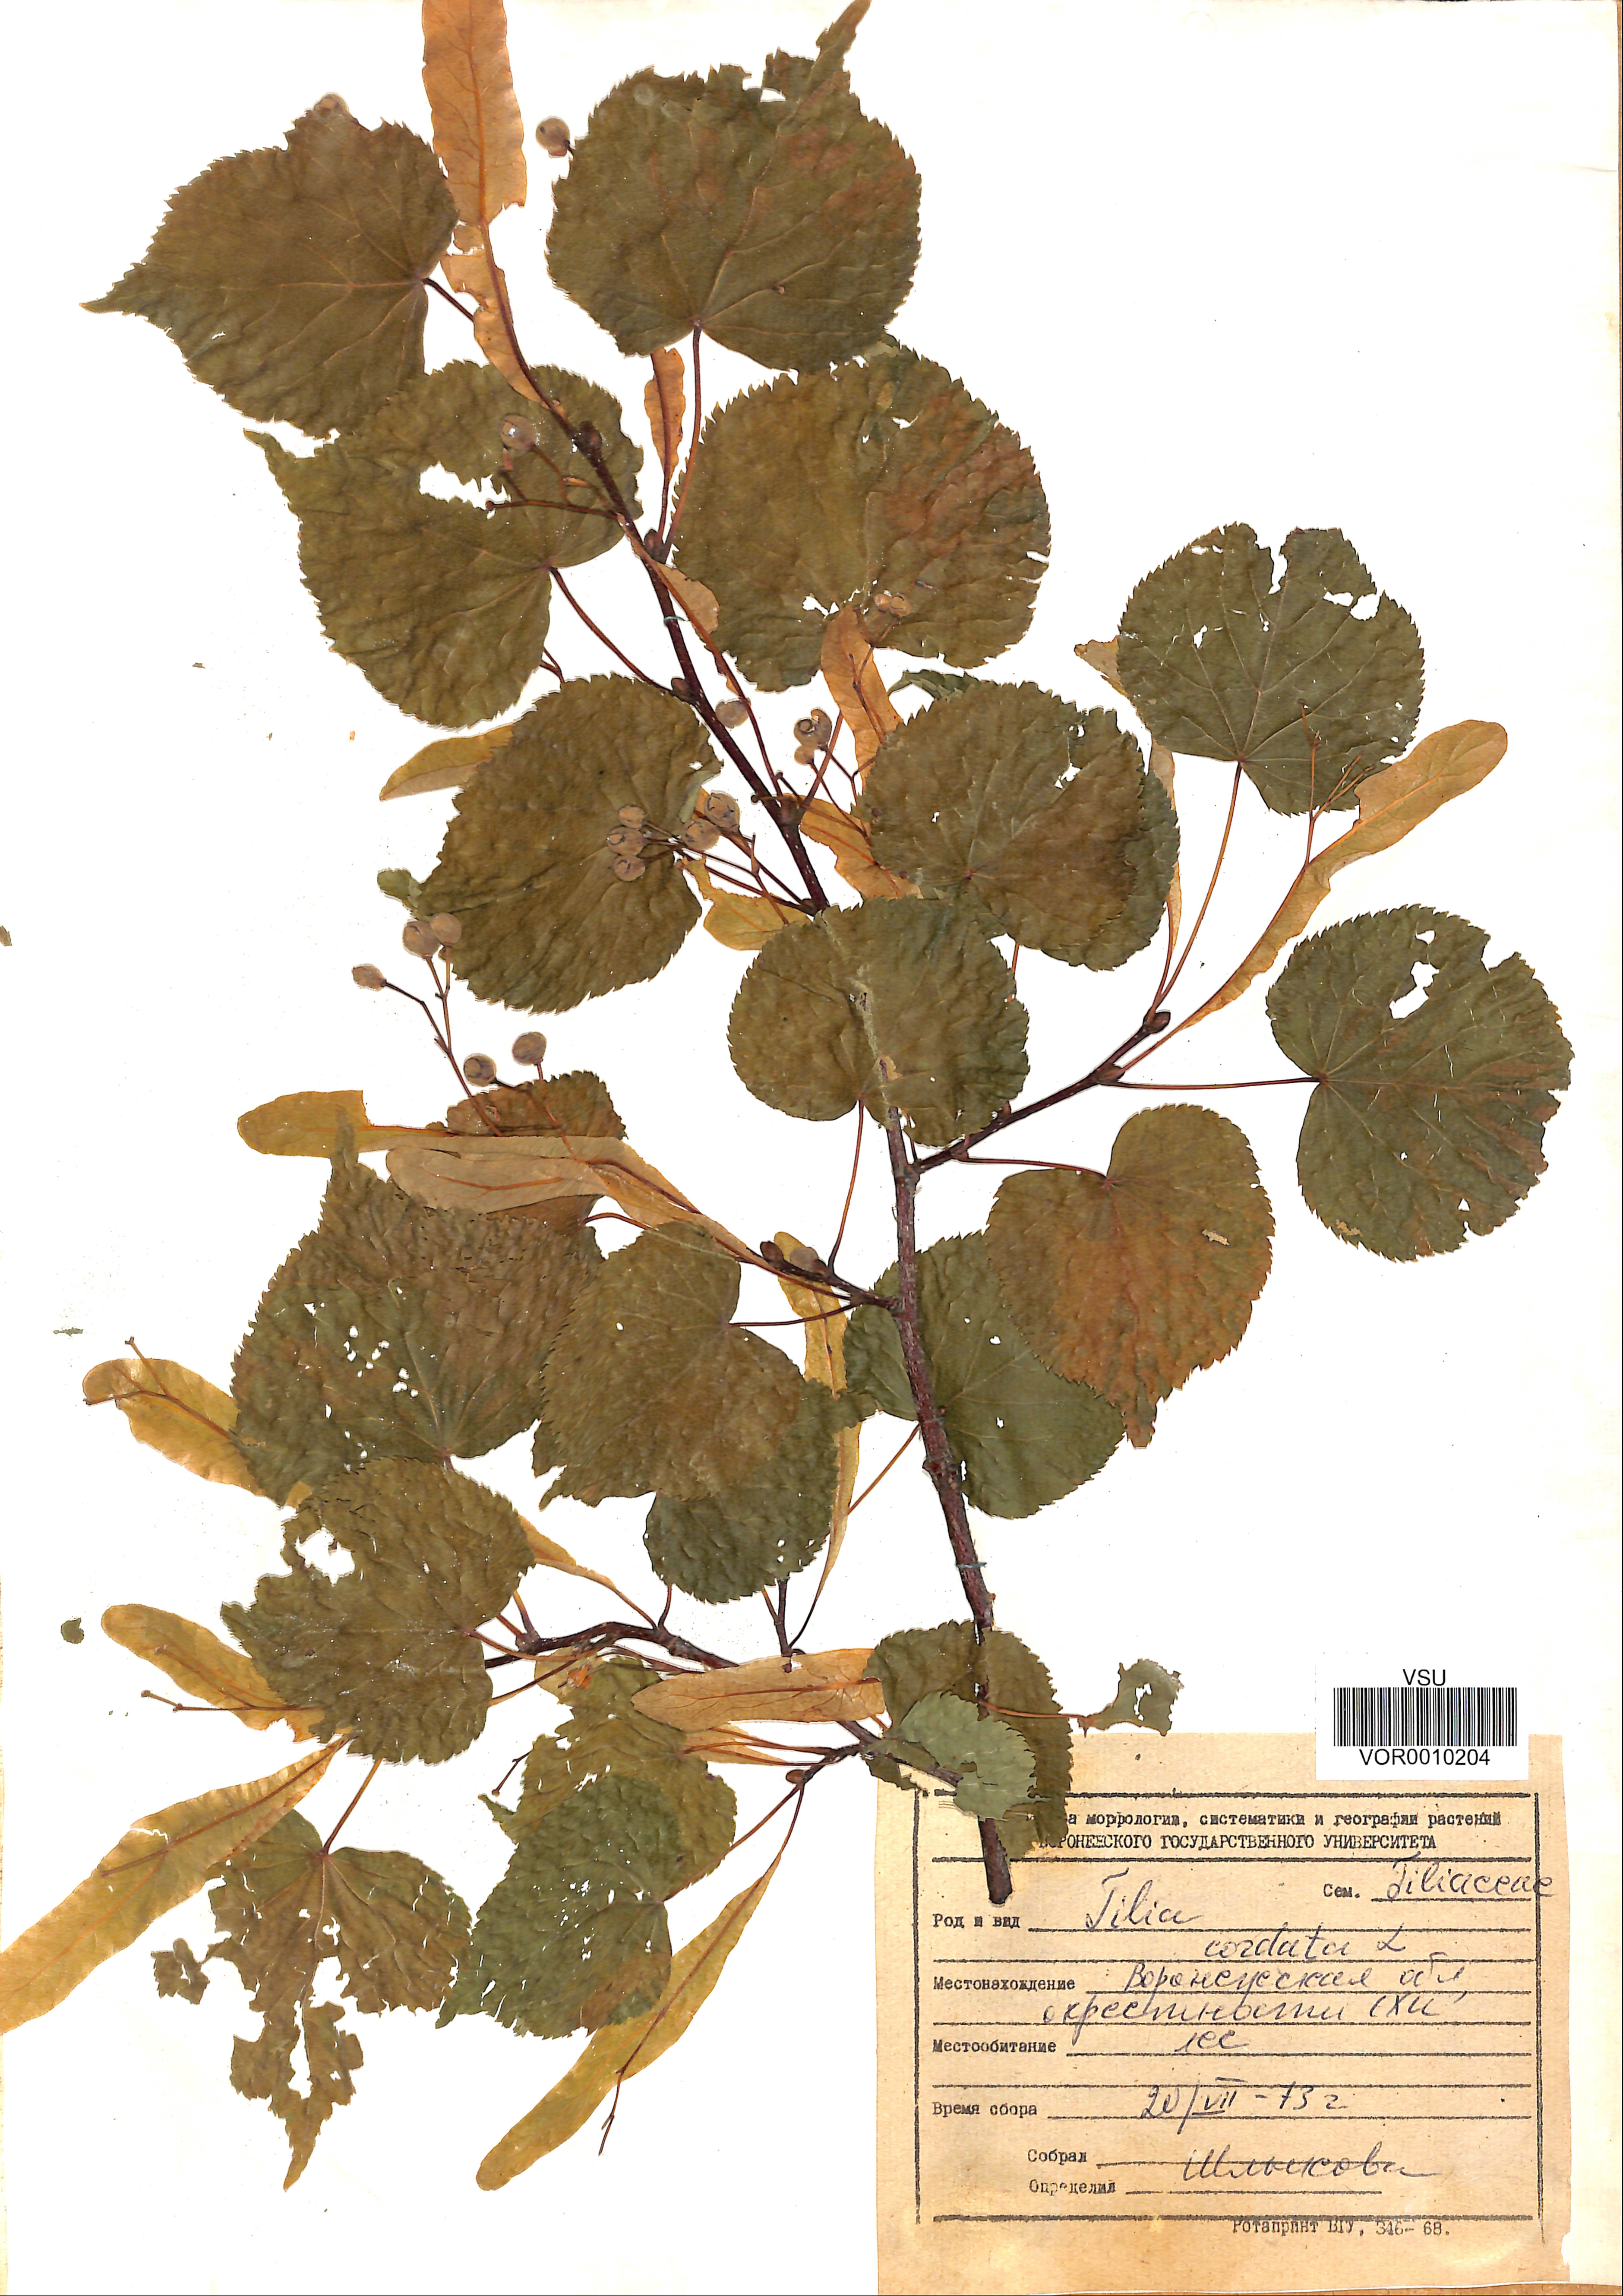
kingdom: Plantae
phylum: Tracheophyta
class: Magnoliopsida
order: Malvales
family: Malvaceae
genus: Tilia
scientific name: Tilia cordata
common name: Small-leaved lime
